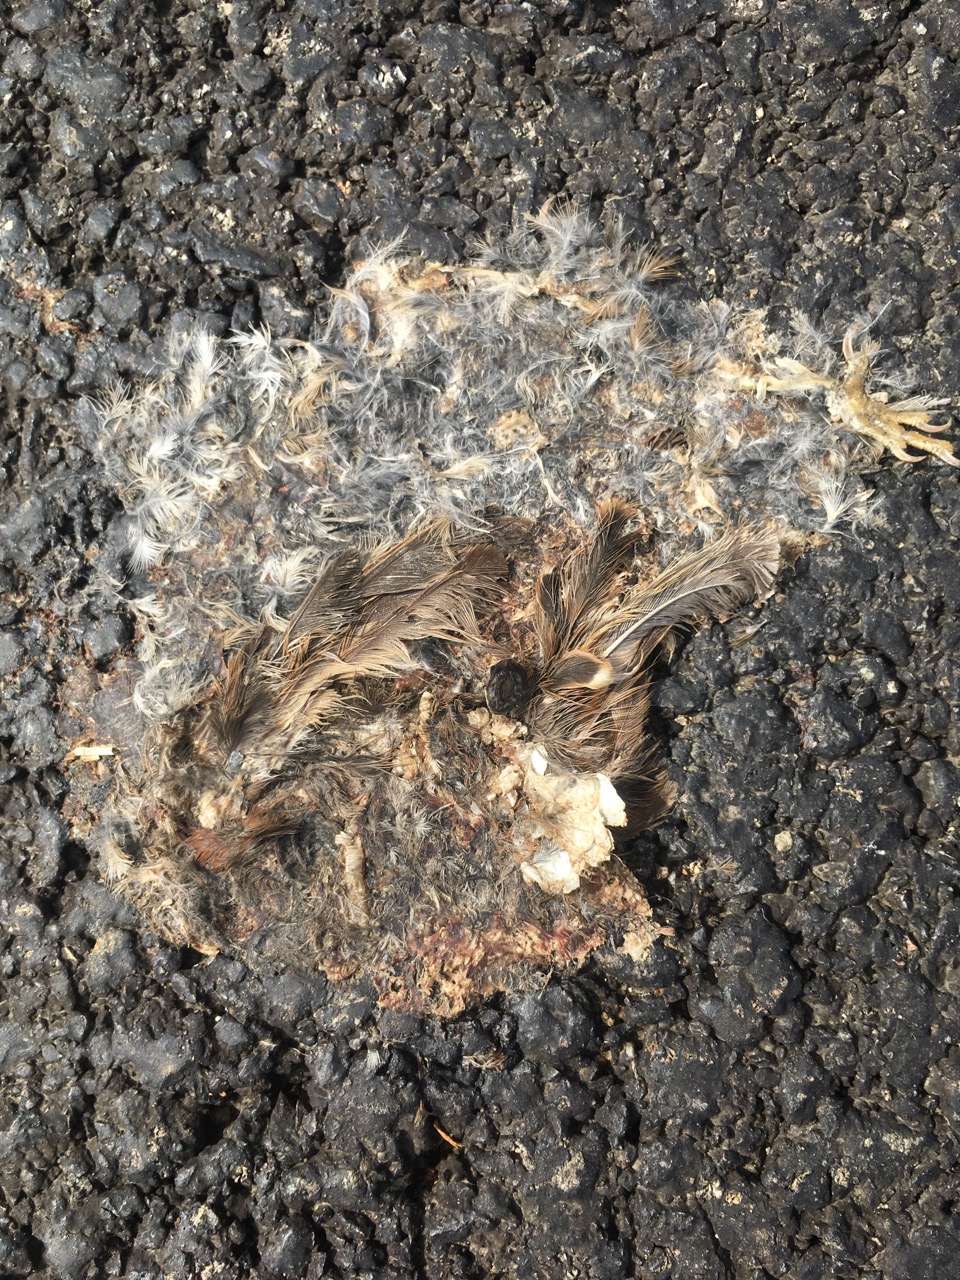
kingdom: Animalia
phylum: Chordata
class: Aves
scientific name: Aves
